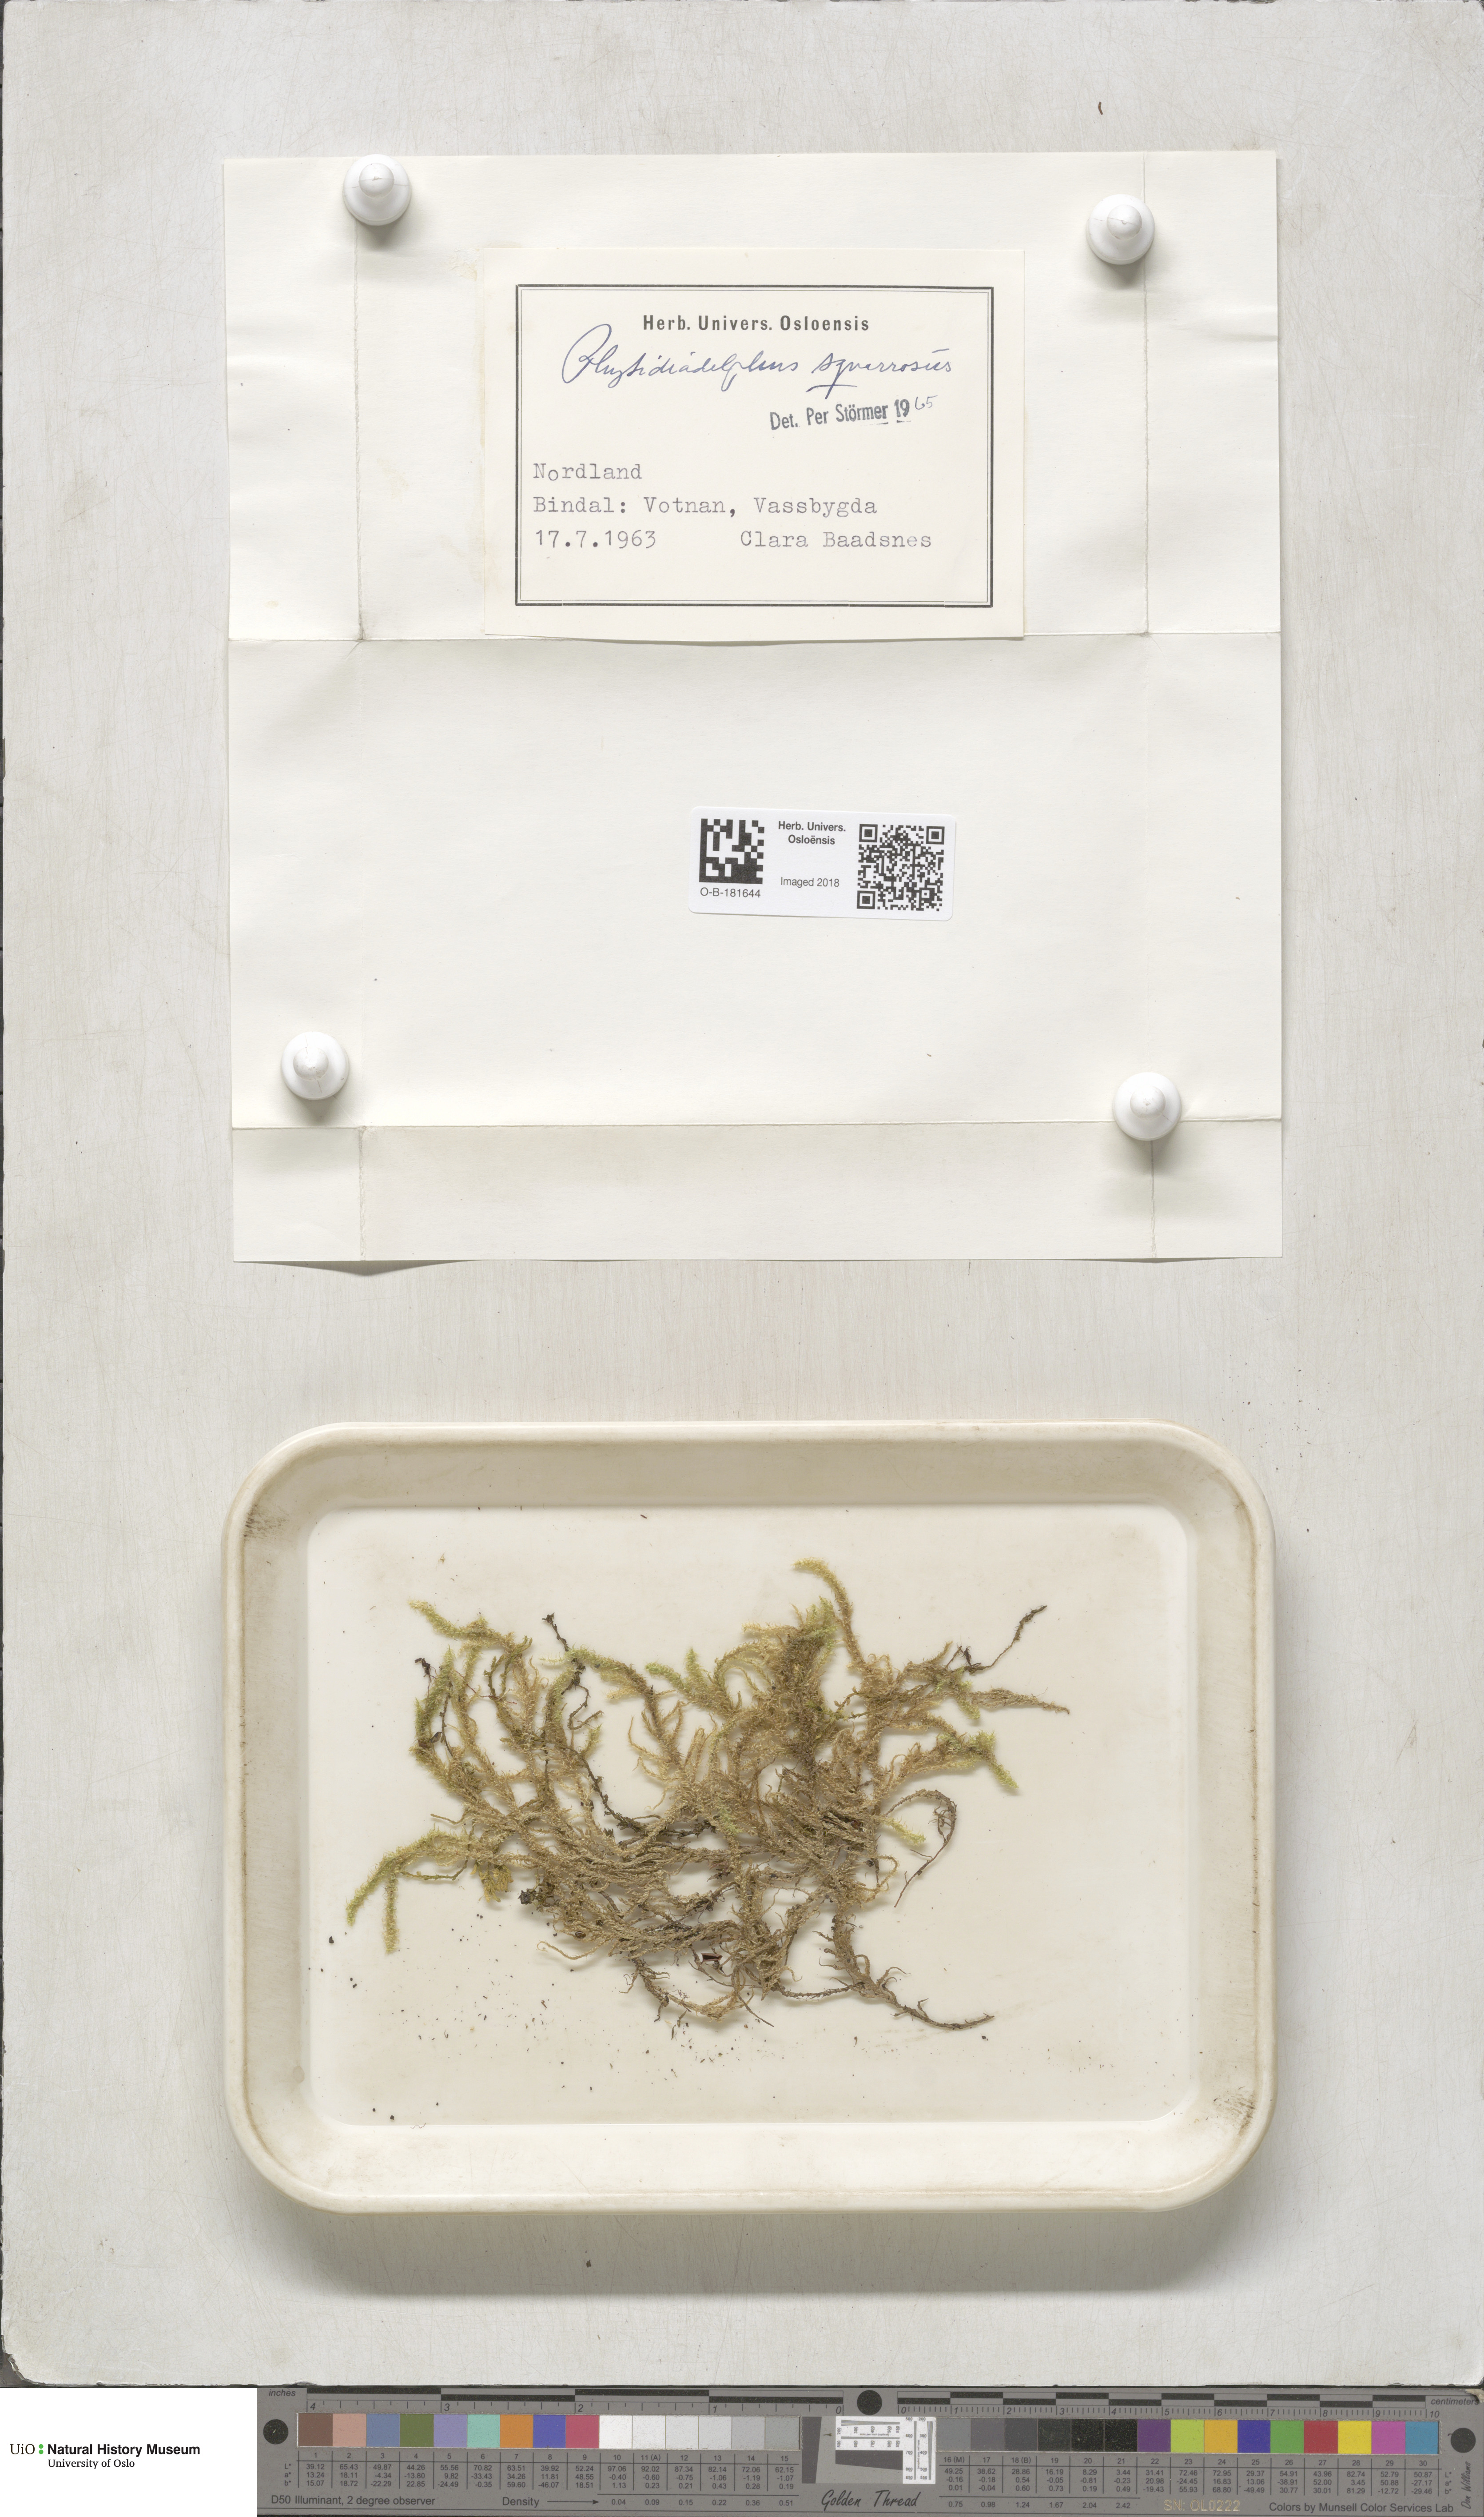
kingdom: Plantae
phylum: Bryophyta
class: Bryopsida
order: Hypnales
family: Hylocomiaceae
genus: Rhytidiadelphus
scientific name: Rhytidiadelphus squarrosus
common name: Springy turf-moss
